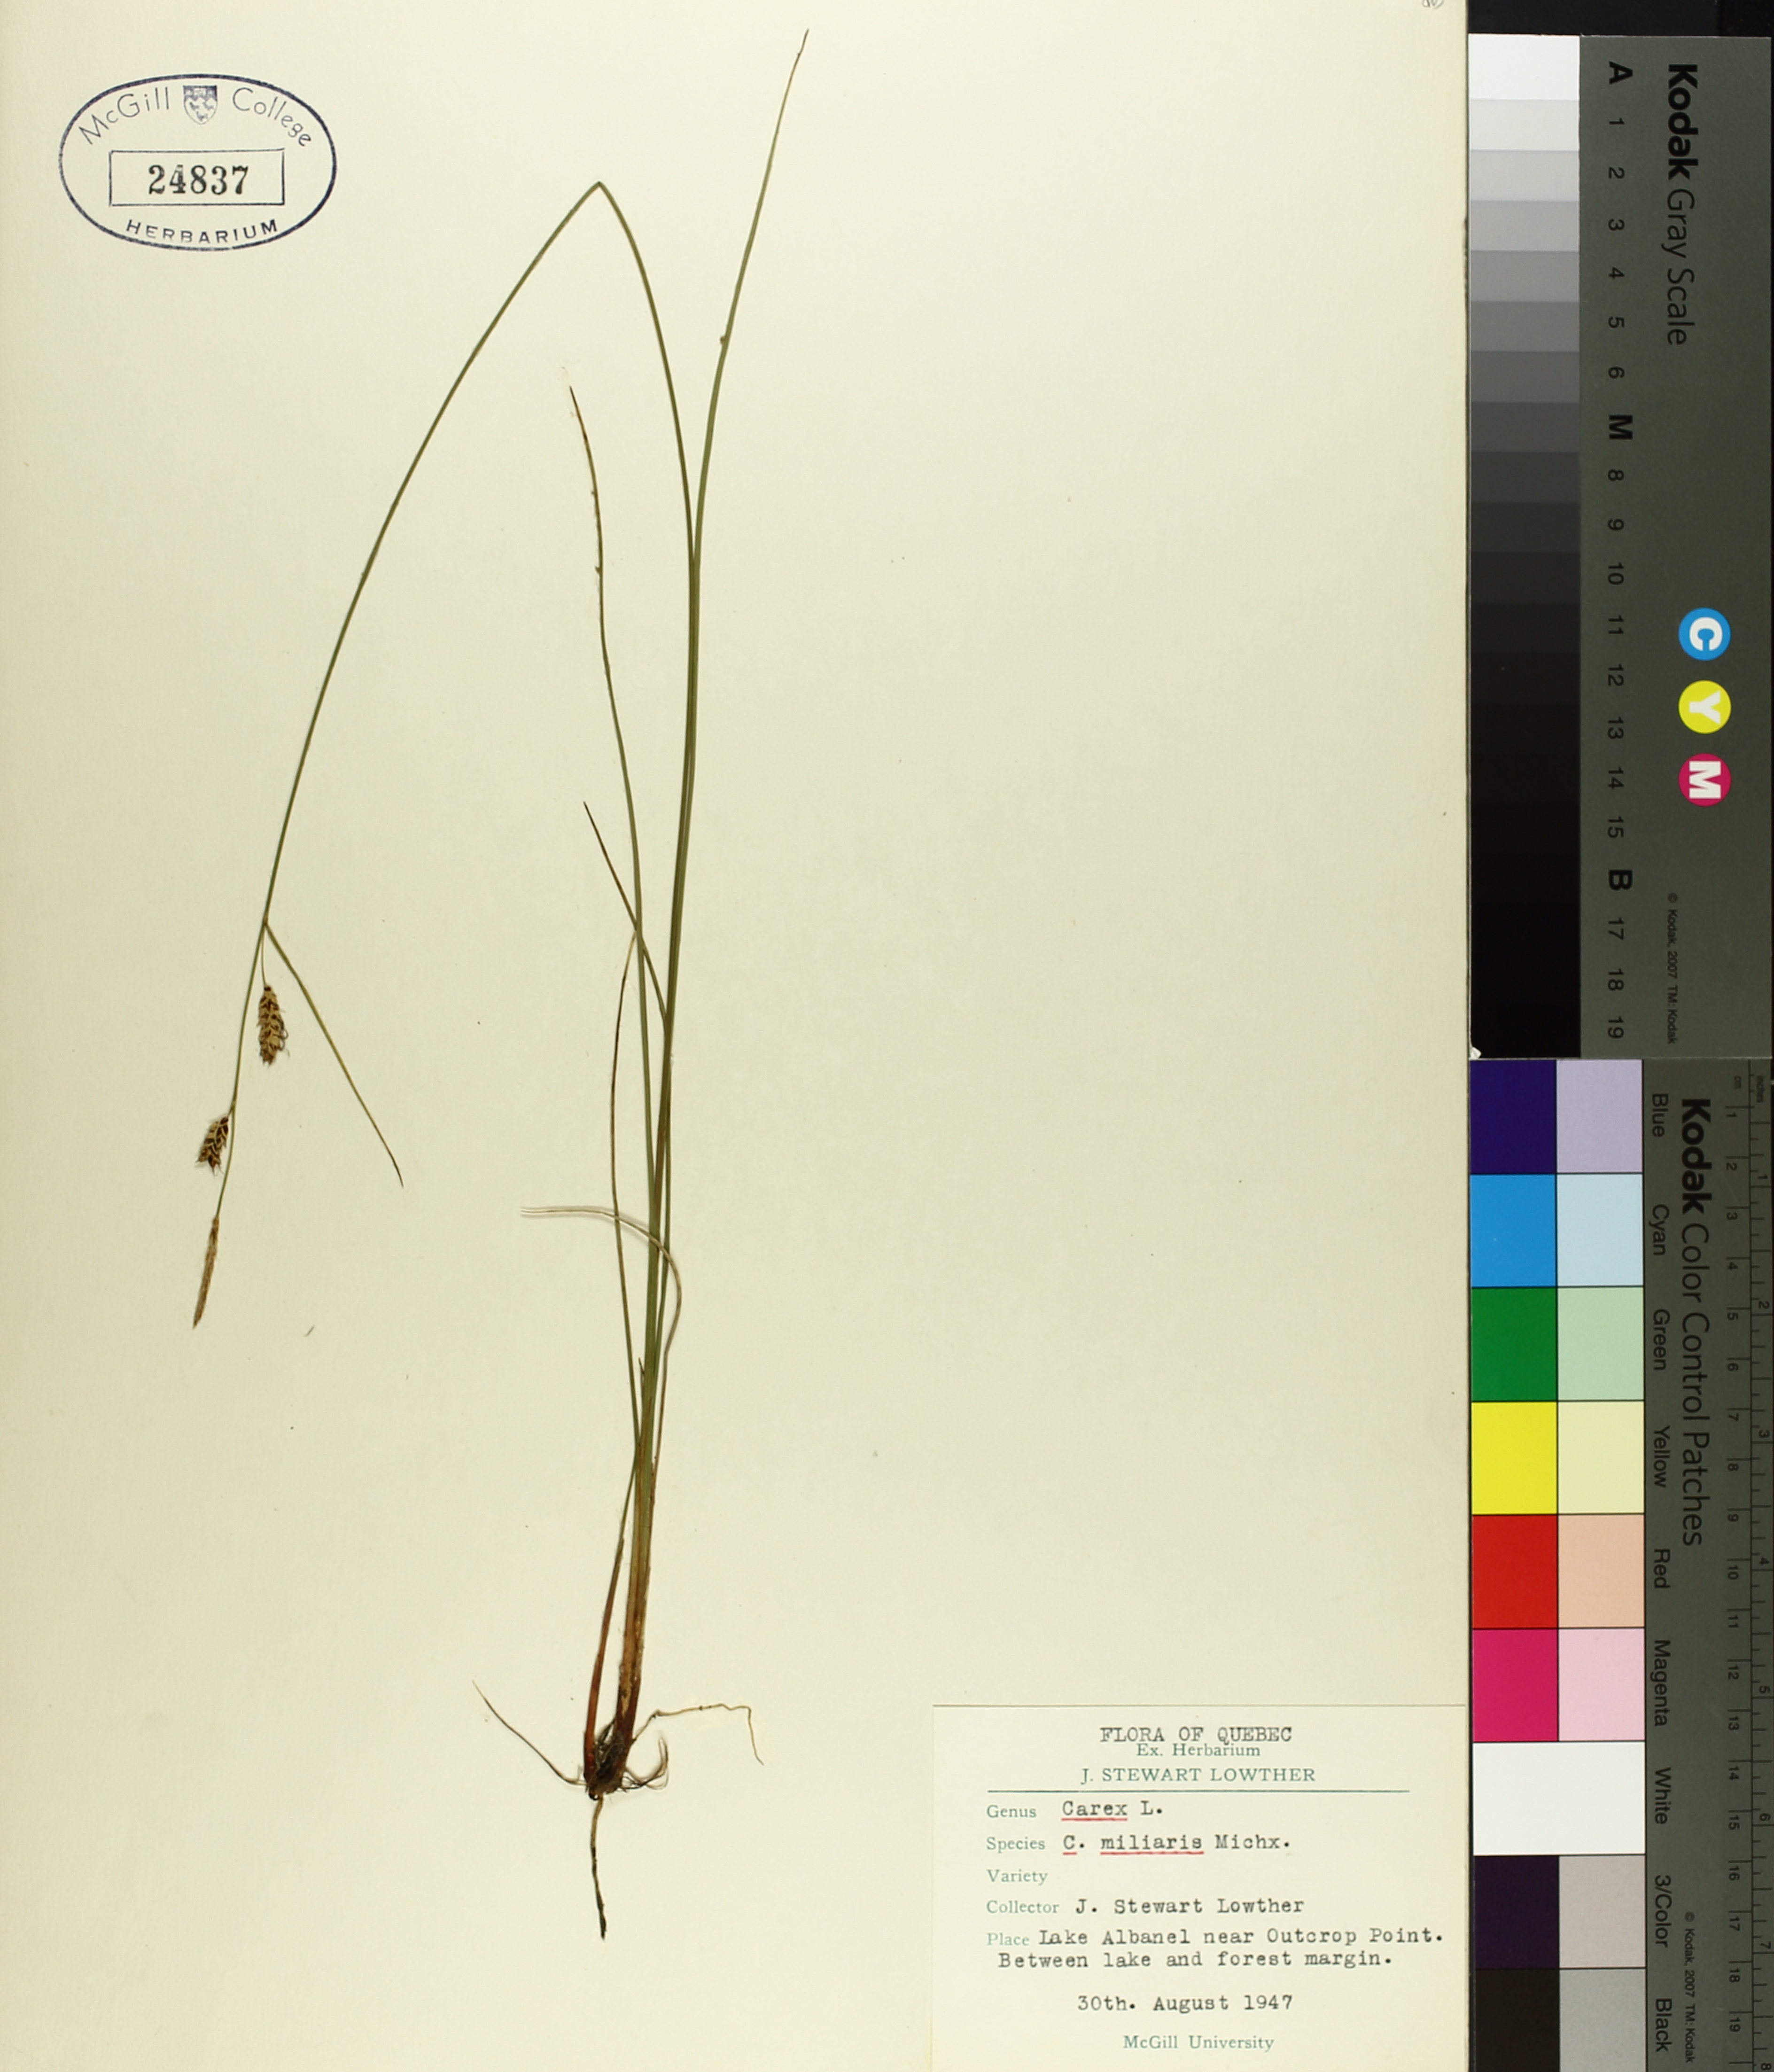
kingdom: Plantae
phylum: Tracheophyta
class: Liliopsida
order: Poales
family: Cyperaceae
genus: Carex
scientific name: Carex saxatilis
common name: Russet sedge
